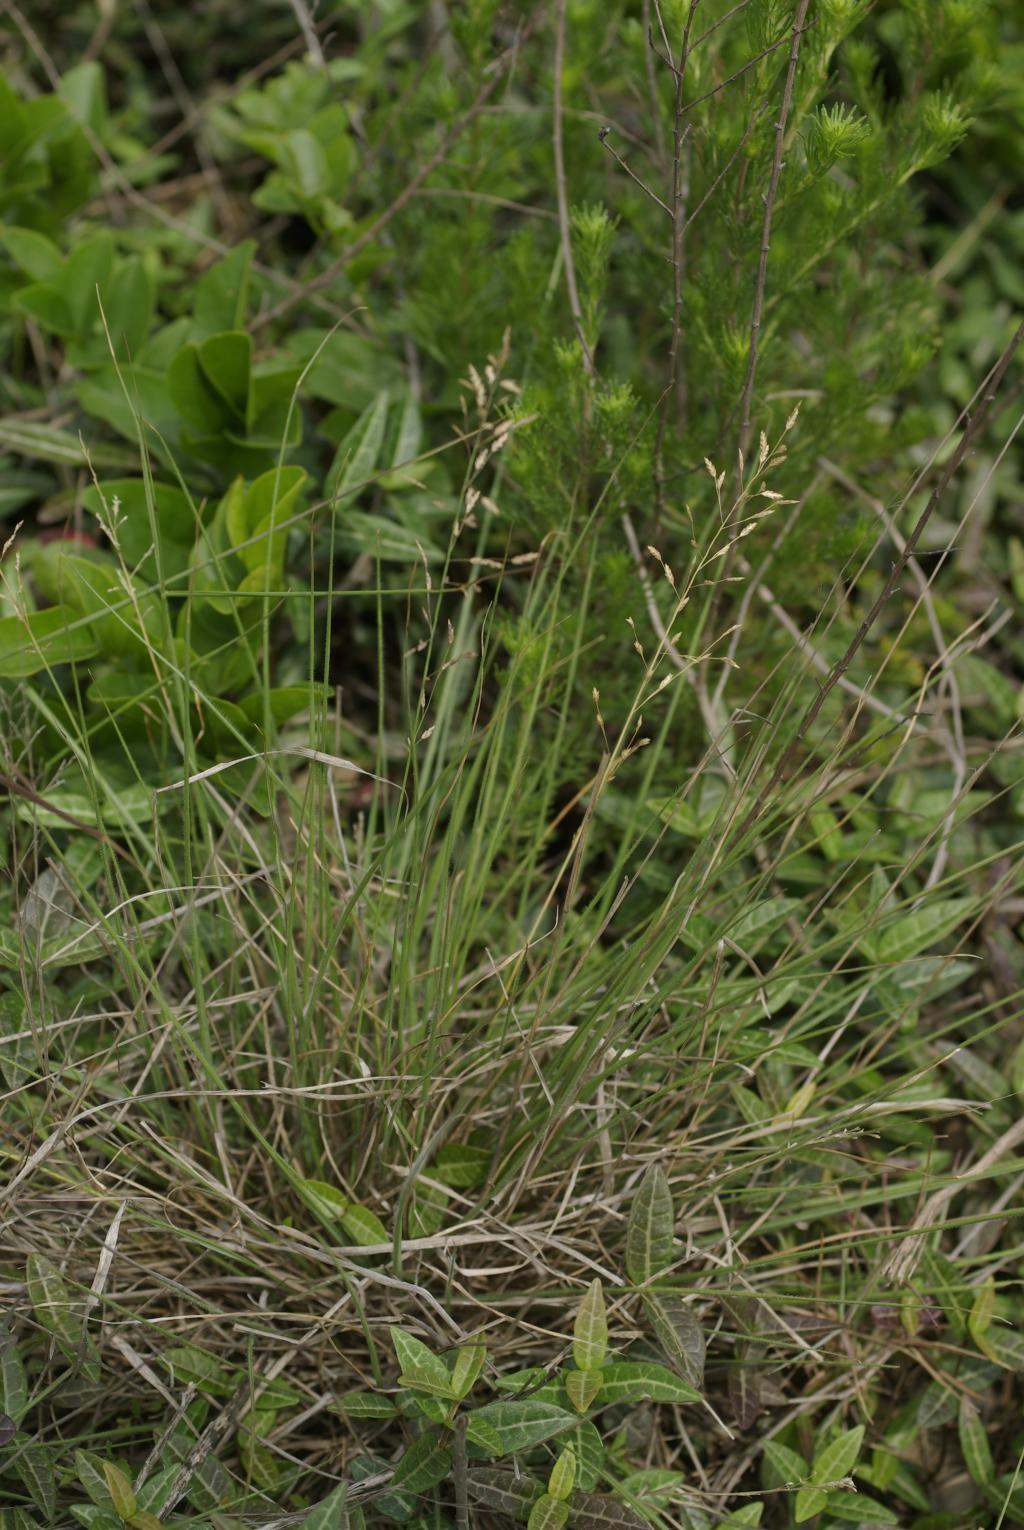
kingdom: Plantae
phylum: Tracheophyta
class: Liliopsida
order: Poales
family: Poaceae
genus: Eragrostis
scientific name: Eragrostis pilosissima
